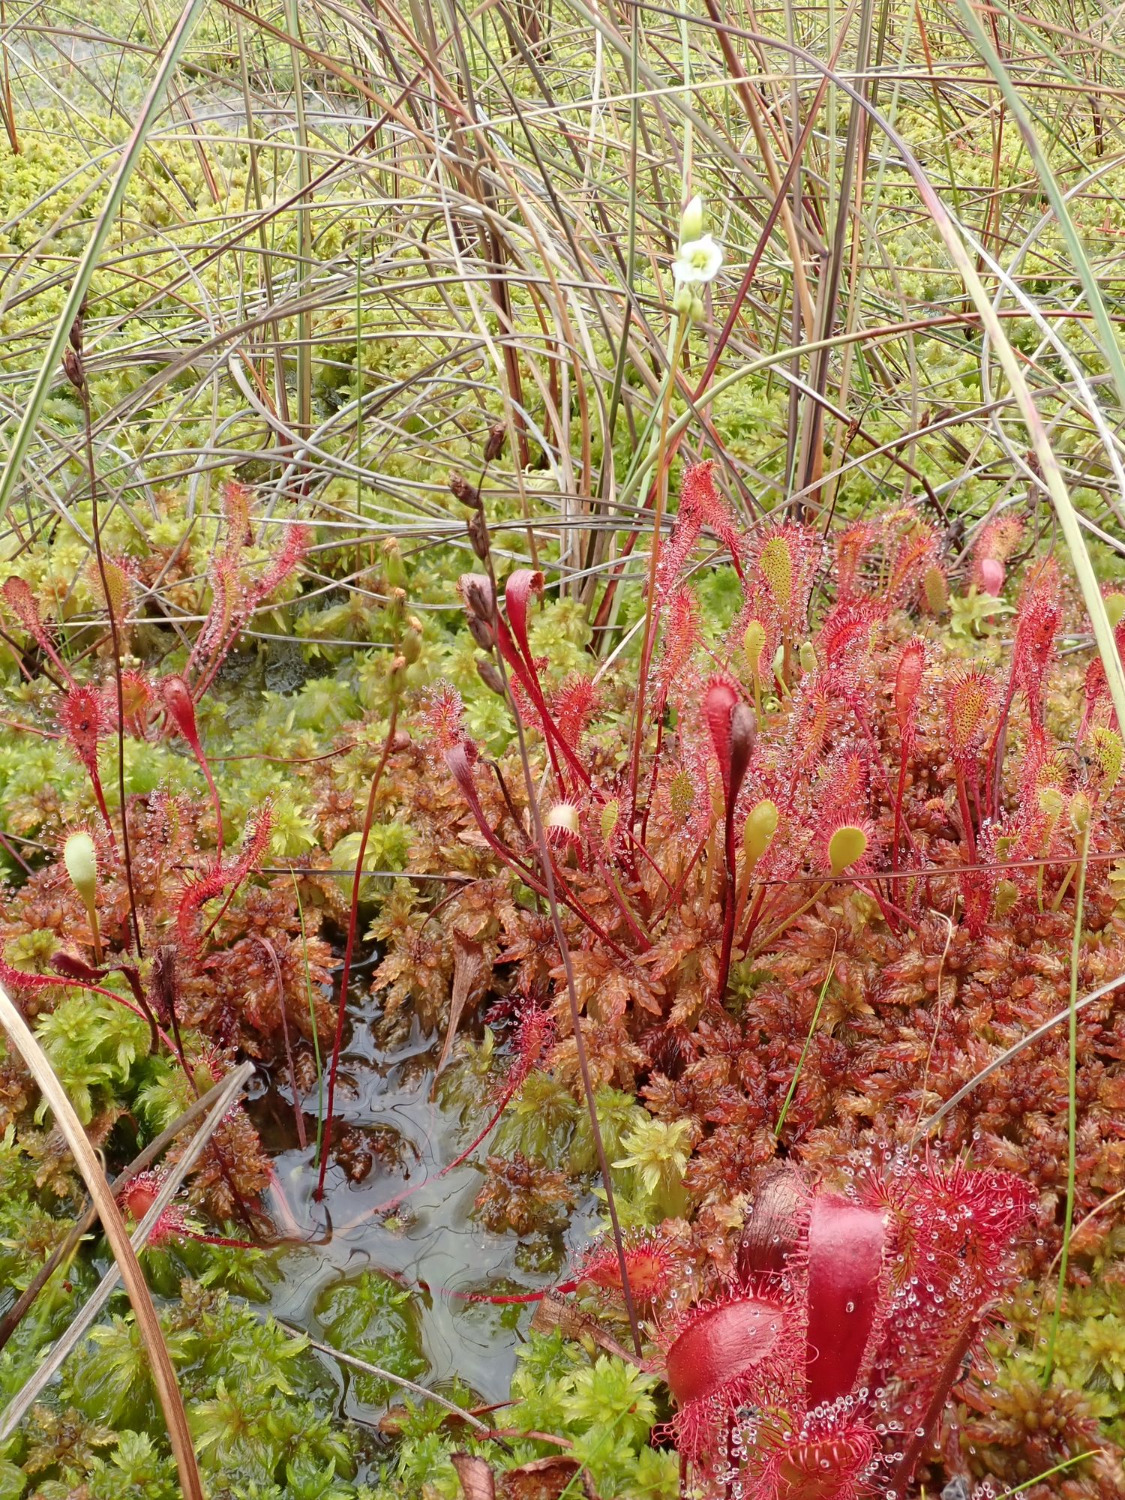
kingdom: Plantae
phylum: Tracheophyta
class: Magnoliopsida
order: Caryophyllales
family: Droseraceae
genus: Drosera
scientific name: Drosera anglica
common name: Langbladet soldug
